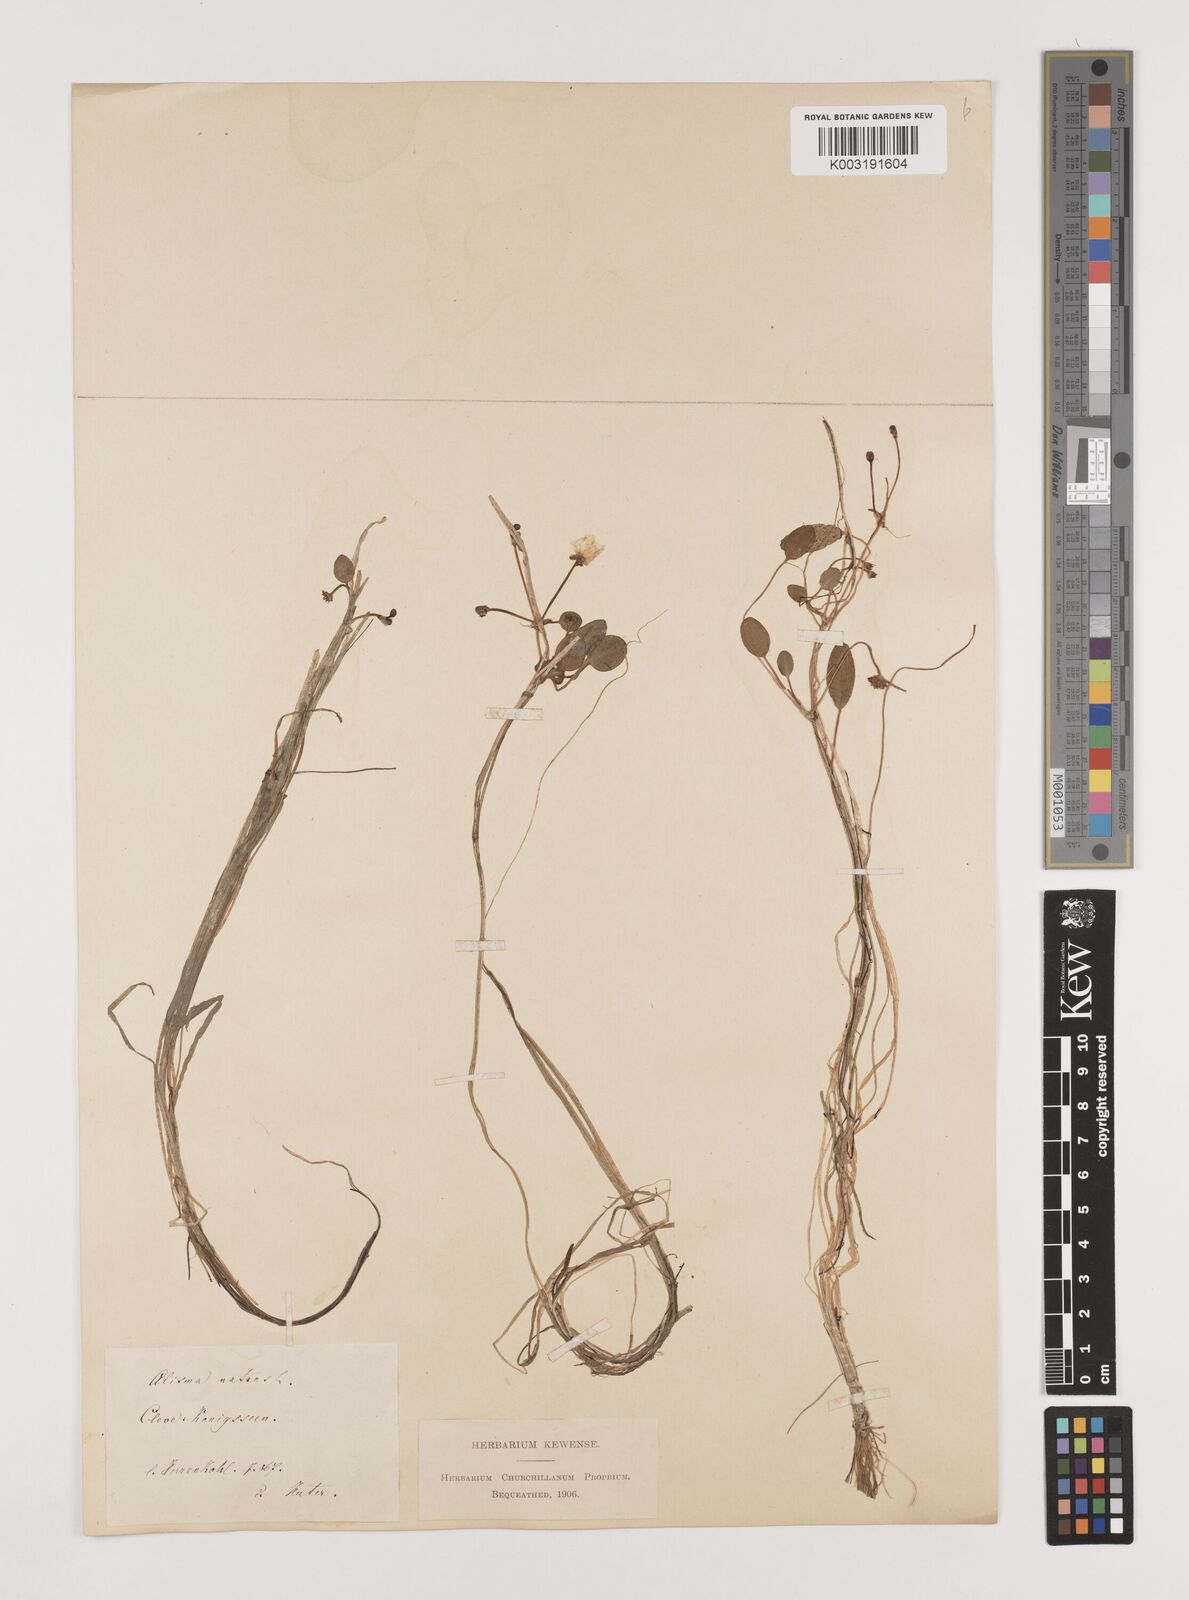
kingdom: Plantae
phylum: Tracheophyta
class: Liliopsida
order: Alismatales
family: Alismataceae
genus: Luronium
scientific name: Luronium natans
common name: Floating water-plantain
